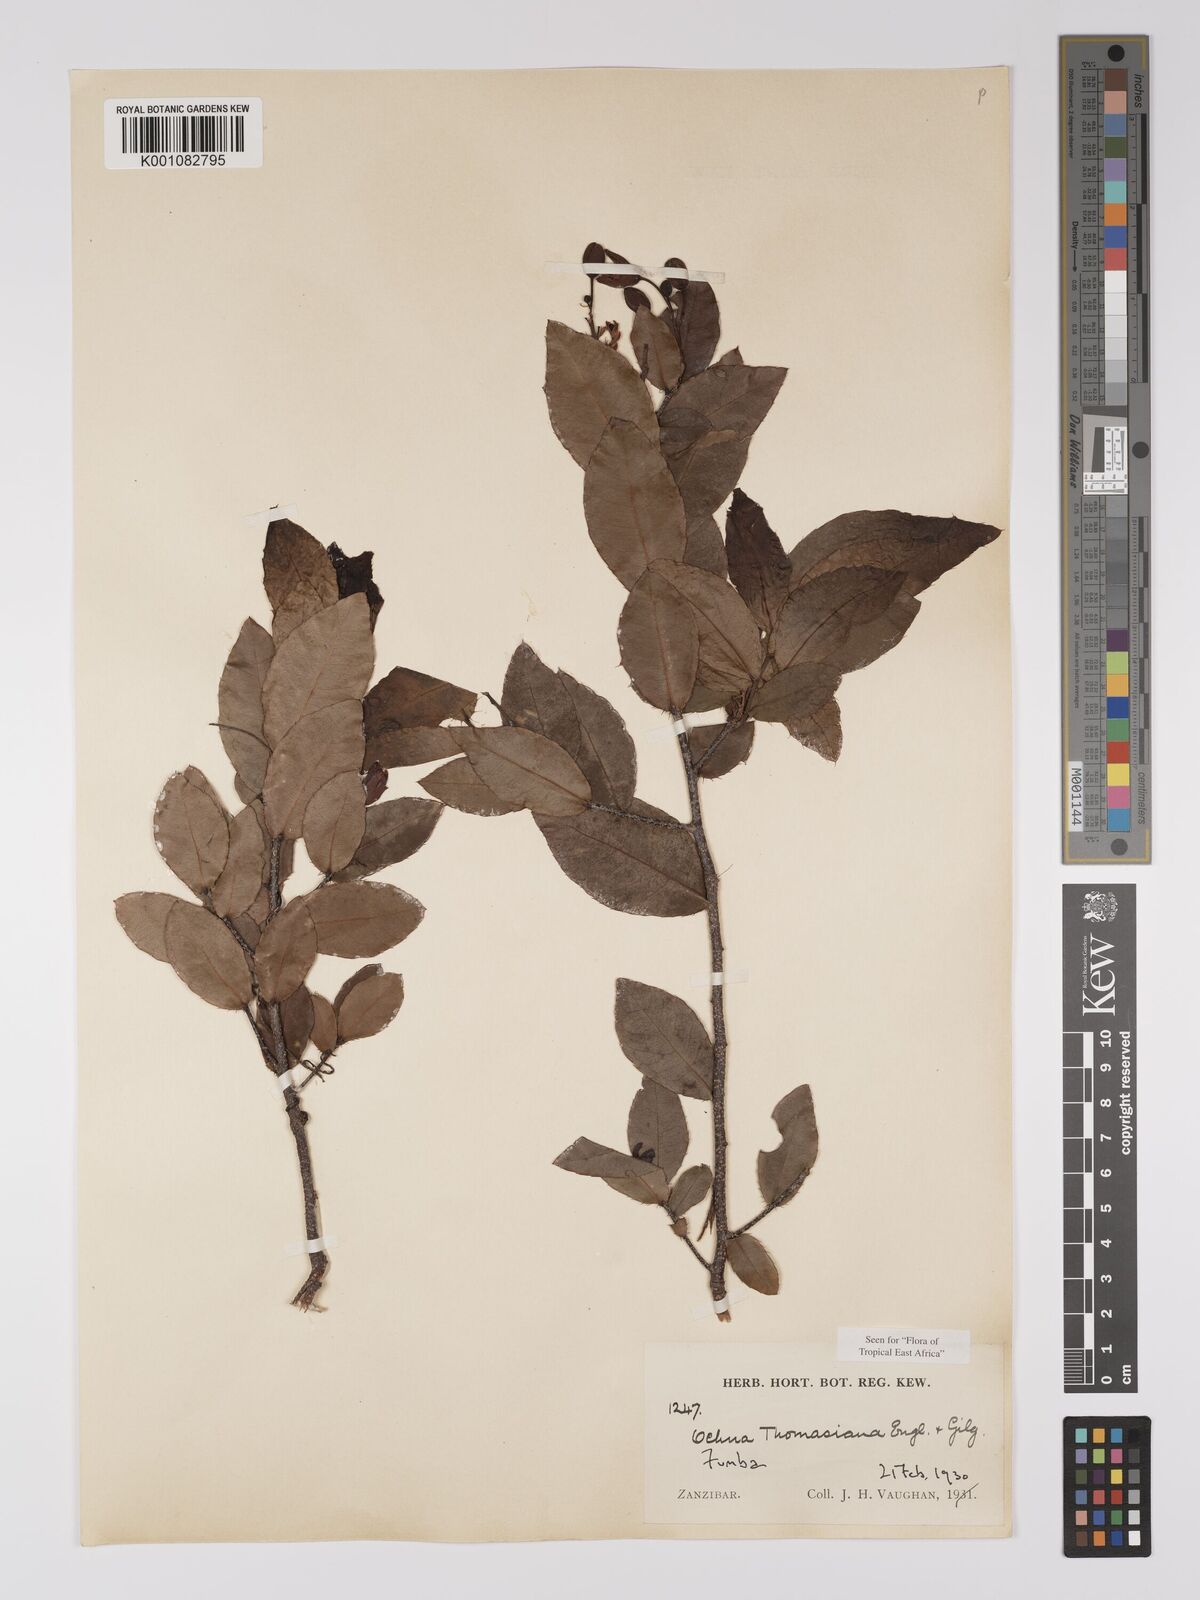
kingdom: Plantae
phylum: Tracheophyta
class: Magnoliopsida
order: Malpighiales
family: Ochnaceae
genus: Ochna
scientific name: Ochna thomasiana
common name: Thomas' bird's-eye bush
